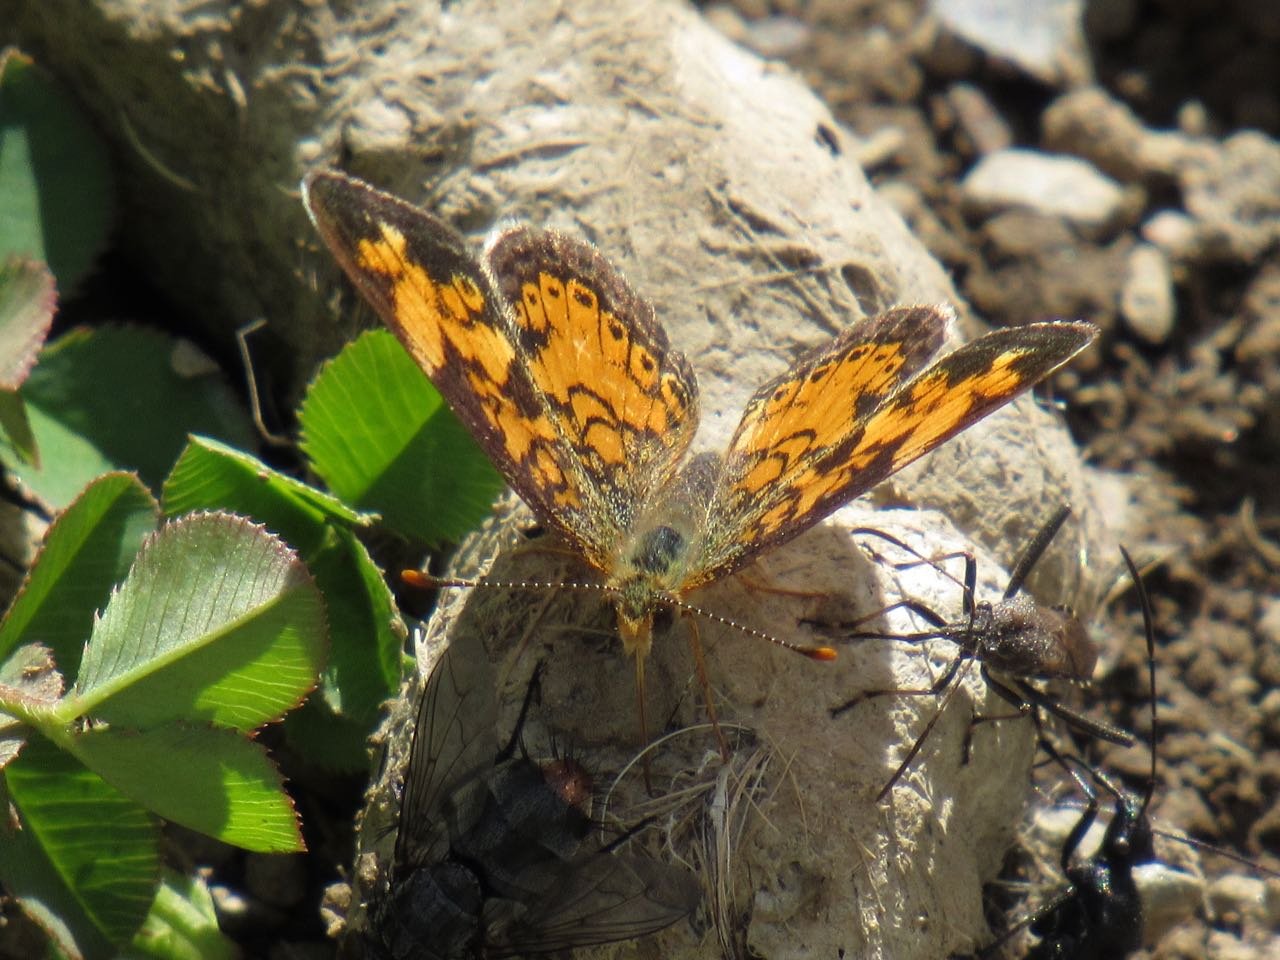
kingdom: Animalia
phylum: Arthropoda
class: Insecta
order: Lepidoptera
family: Nymphalidae
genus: Phyciodes
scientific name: Phyciodes tharos
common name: Pearl Crescent
